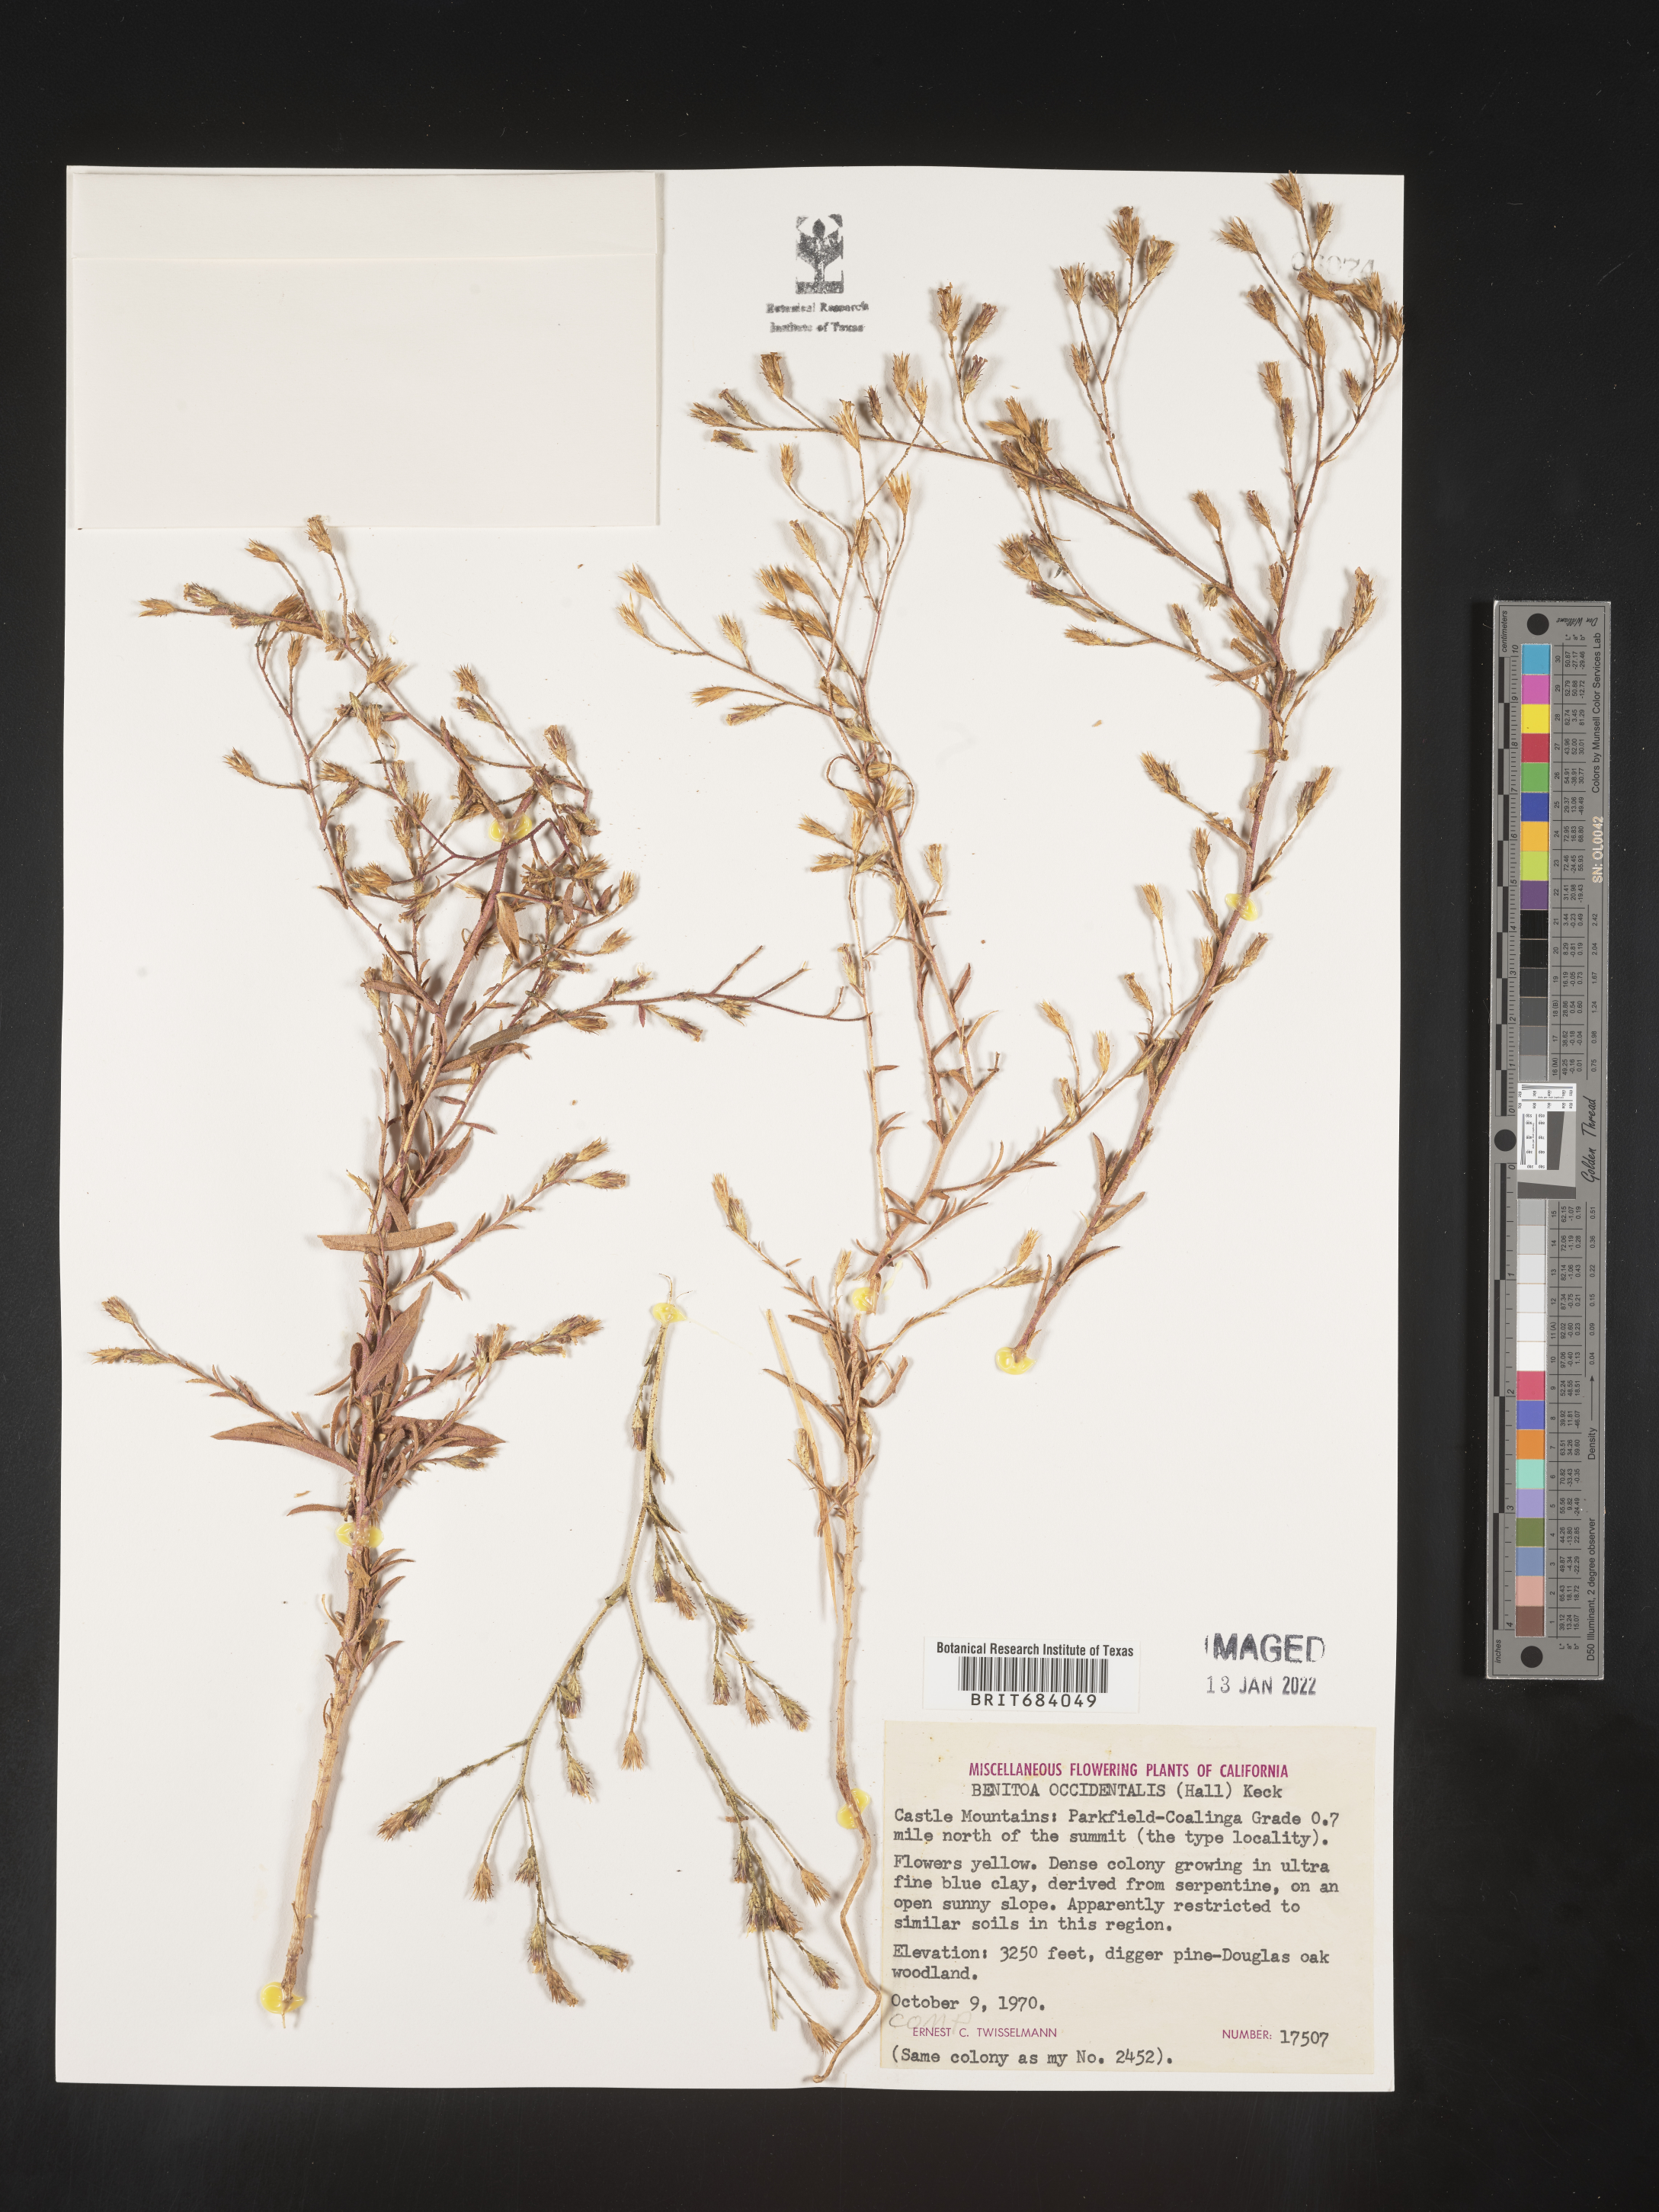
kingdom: Plantae
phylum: Tracheophyta
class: Magnoliopsida
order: Asterales
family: Asteraceae
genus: Benitoa
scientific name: Benitoa
